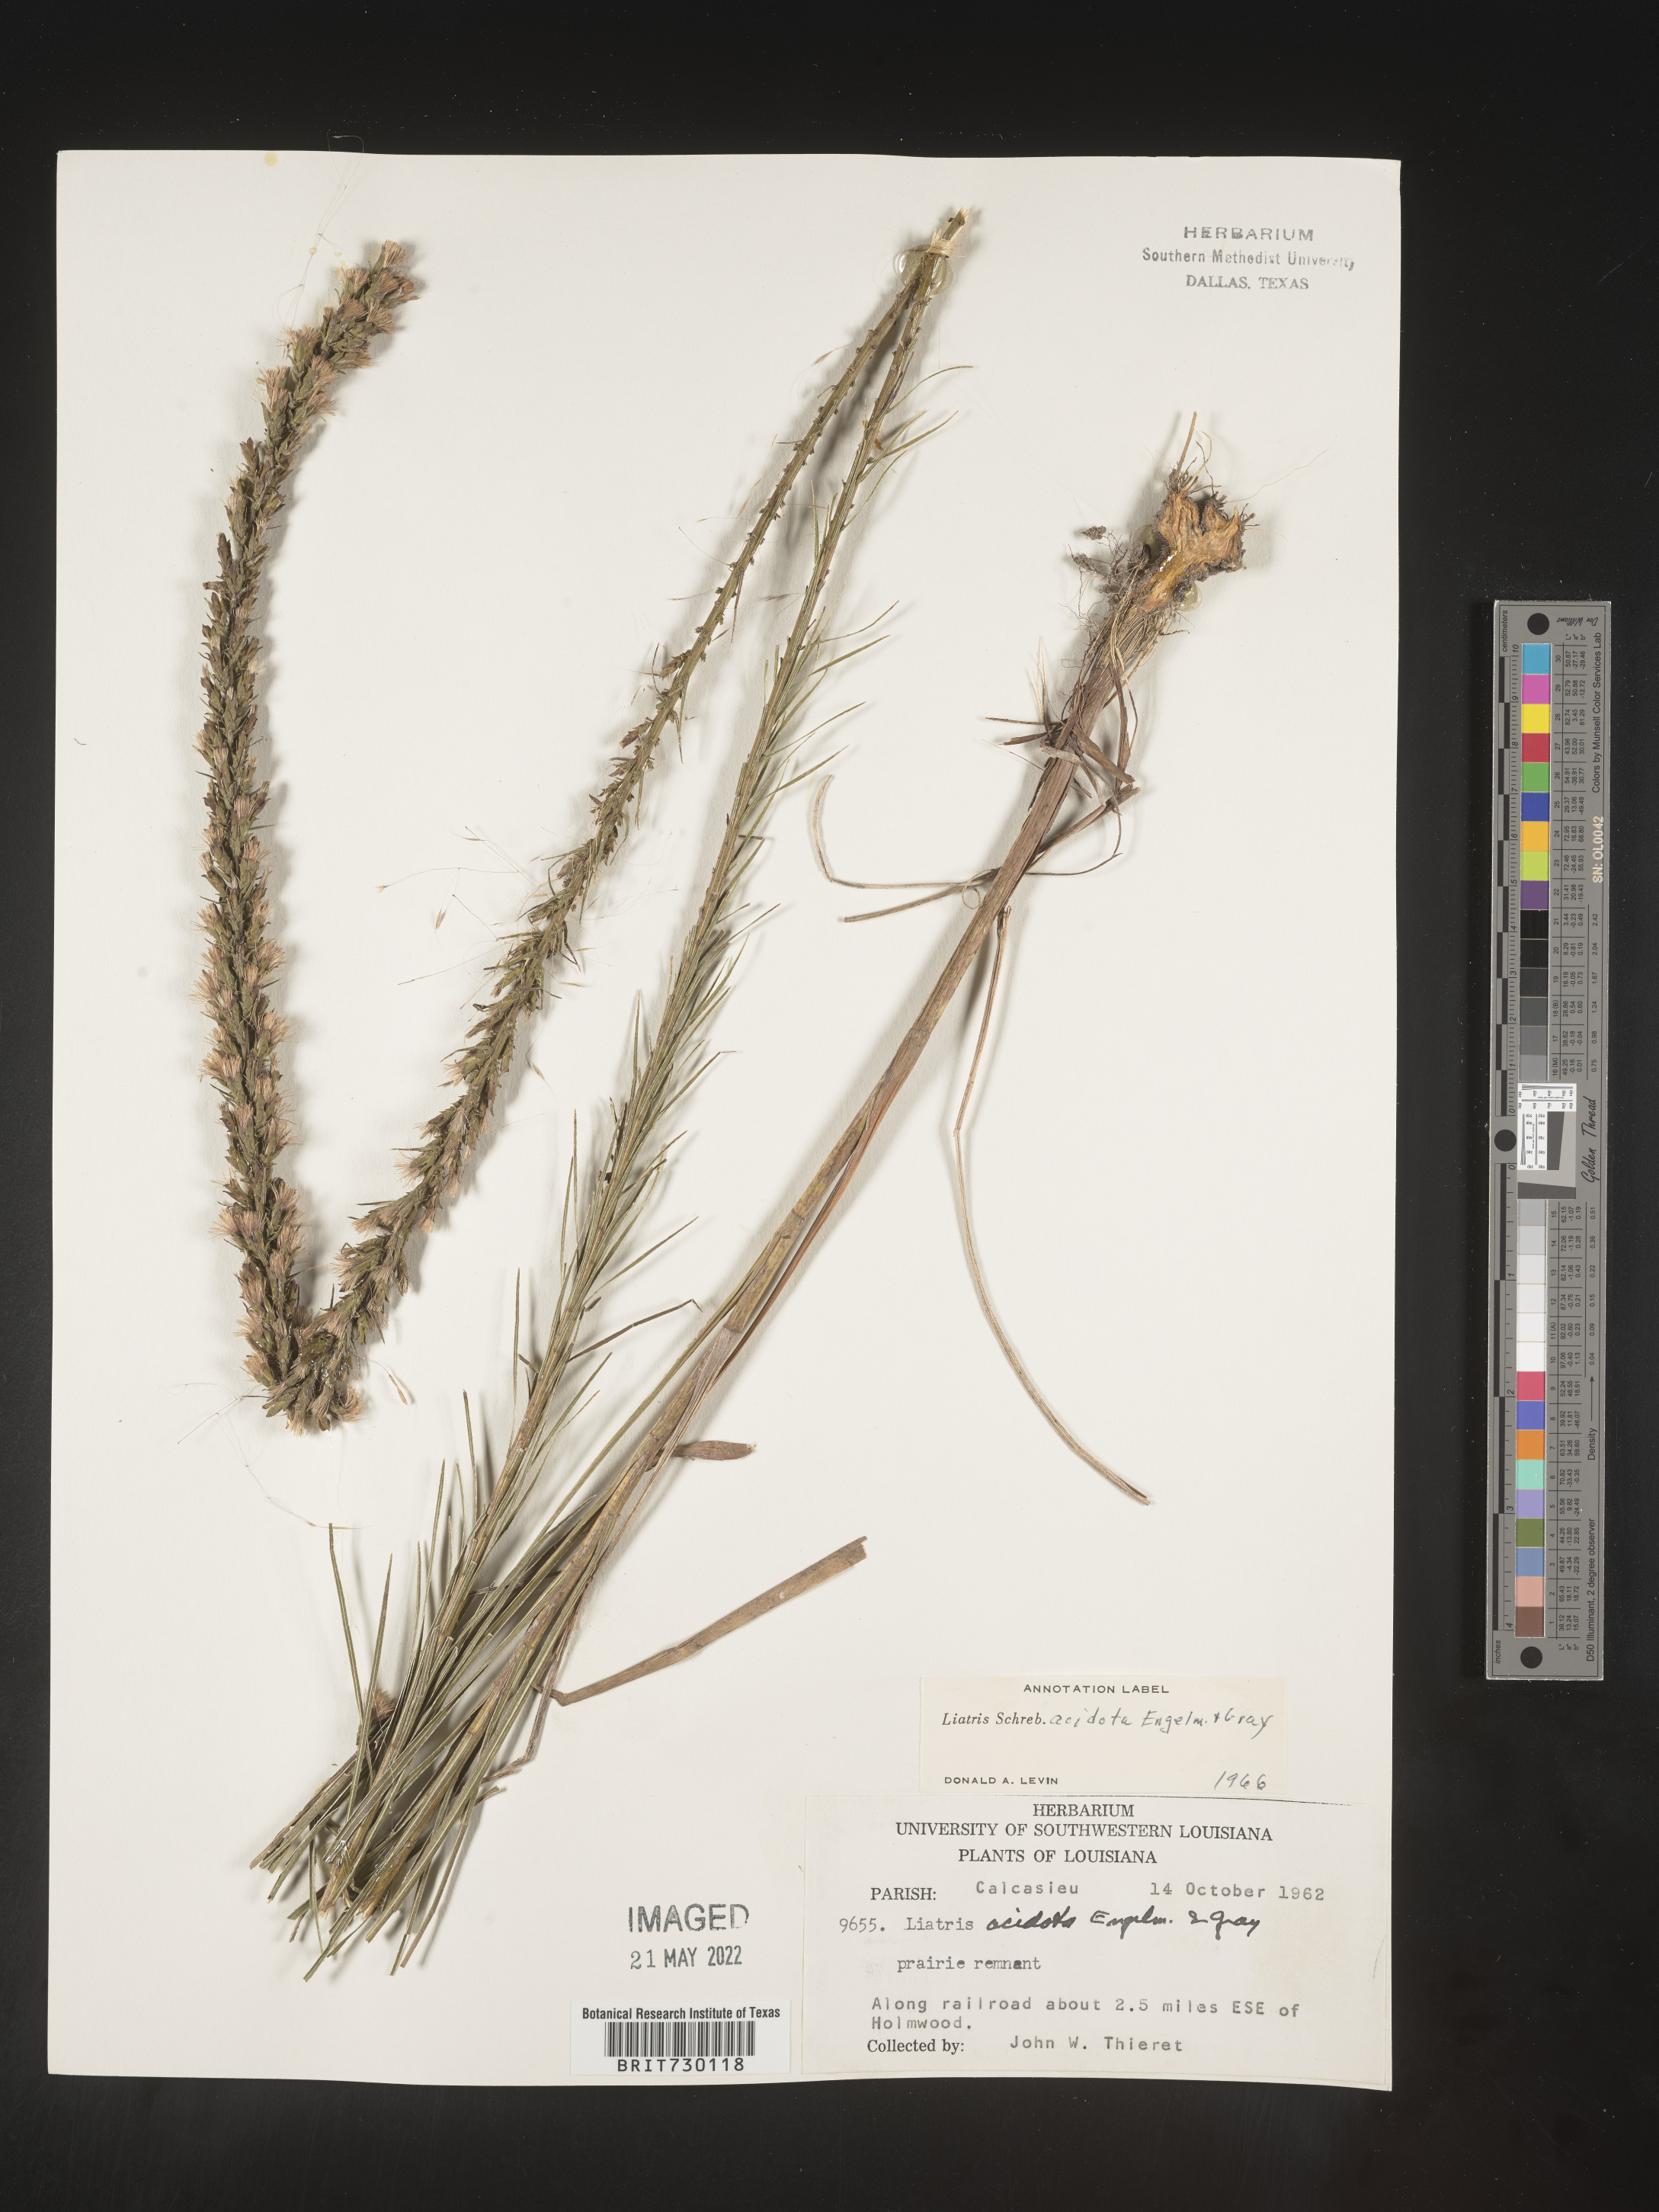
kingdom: Plantae
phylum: Tracheophyta
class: Magnoliopsida
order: Asterales
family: Asteraceae
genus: Liatris
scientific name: Liatris acidota
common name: Gulf coast gayfeather
